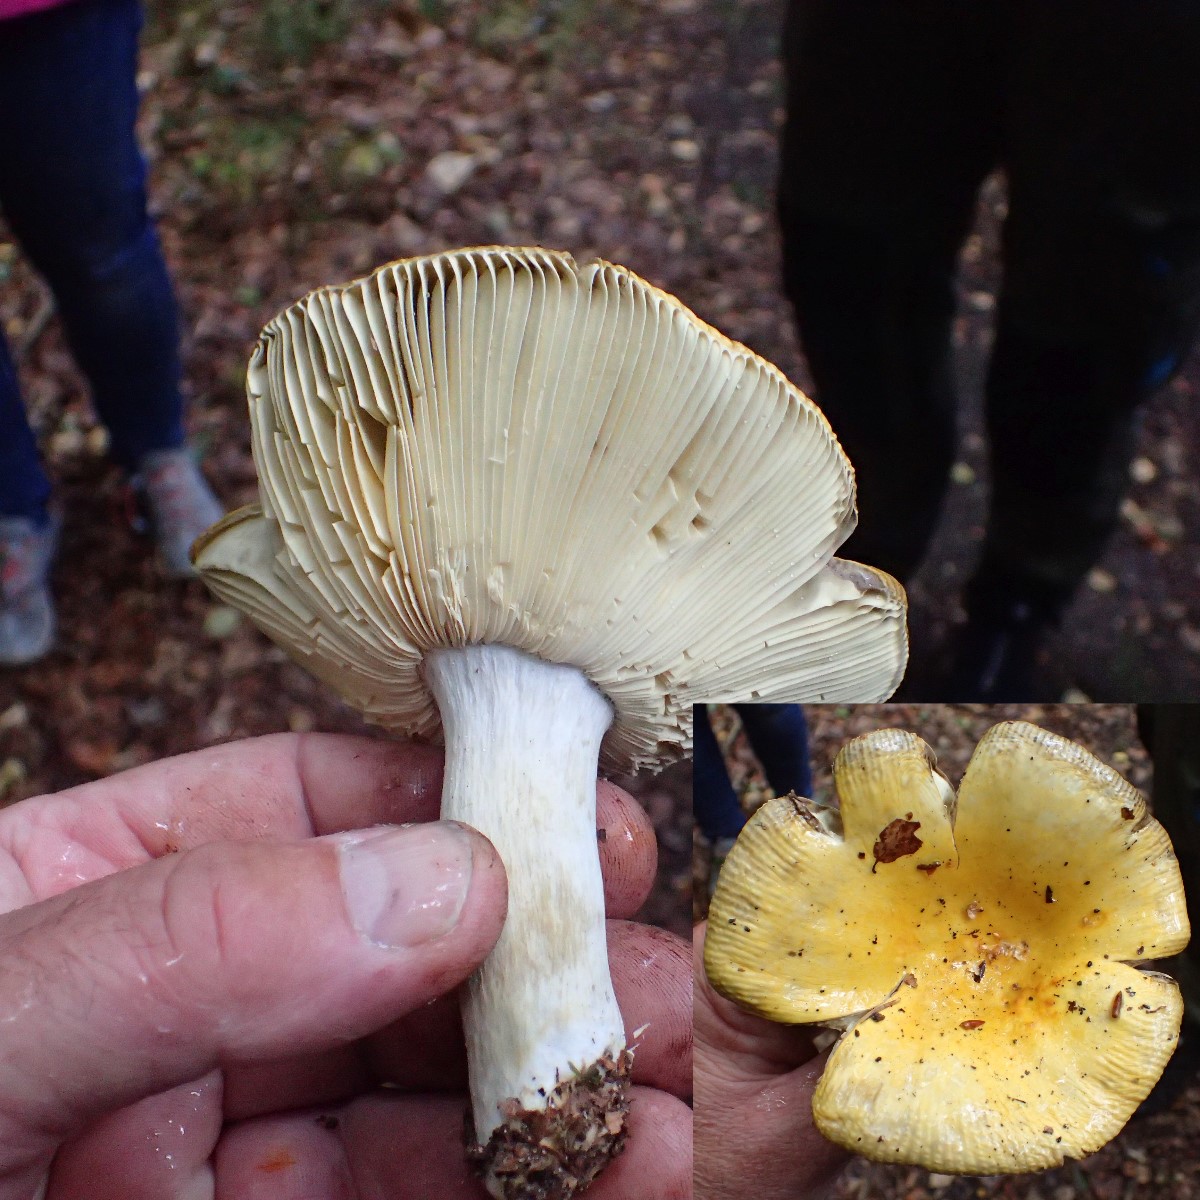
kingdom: Fungi
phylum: Basidiomycota
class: Agaricomycetes
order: Russulales
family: Russulaceae
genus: Russula
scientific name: Russula claroflava
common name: birke-skørhat
